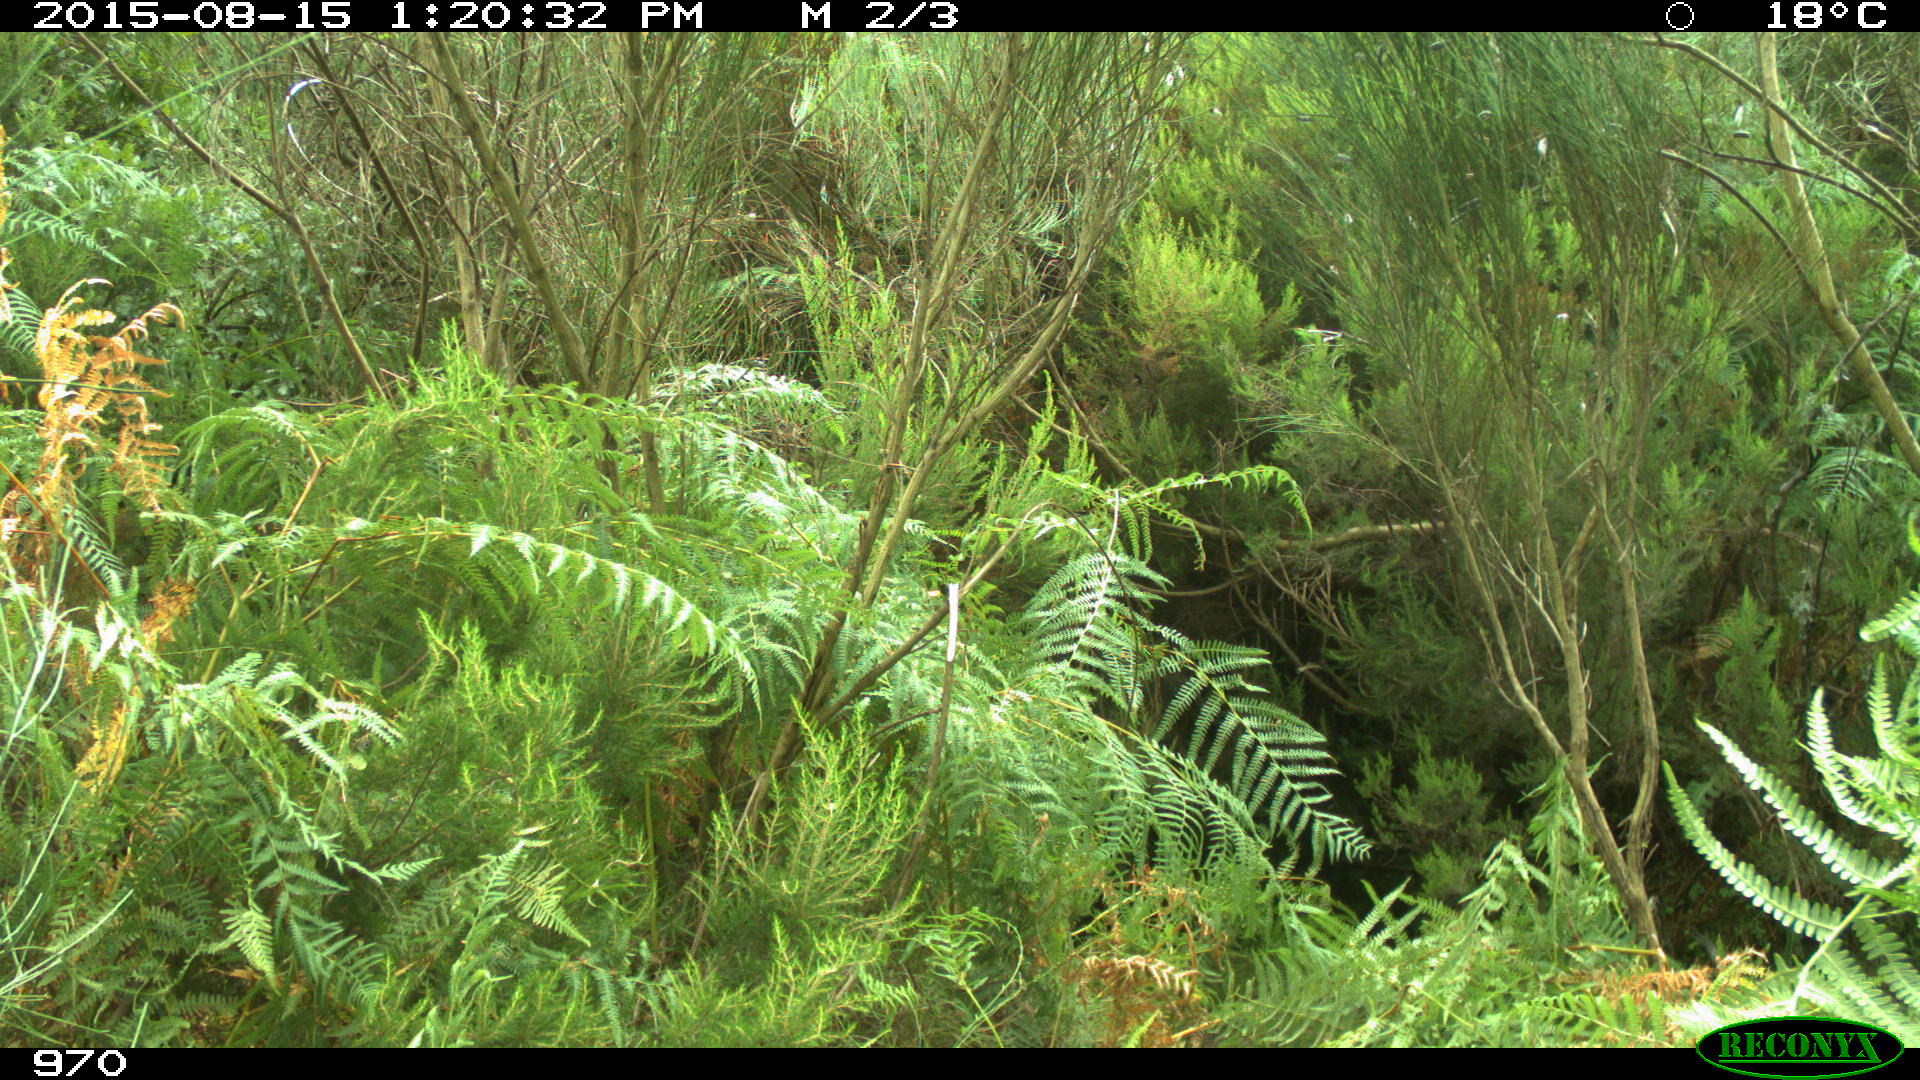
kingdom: Animalia
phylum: Chordata
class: Mammalia
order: Artiodactyla
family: Suidae
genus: Sus
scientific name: Sus scrofa
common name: Wild boar
